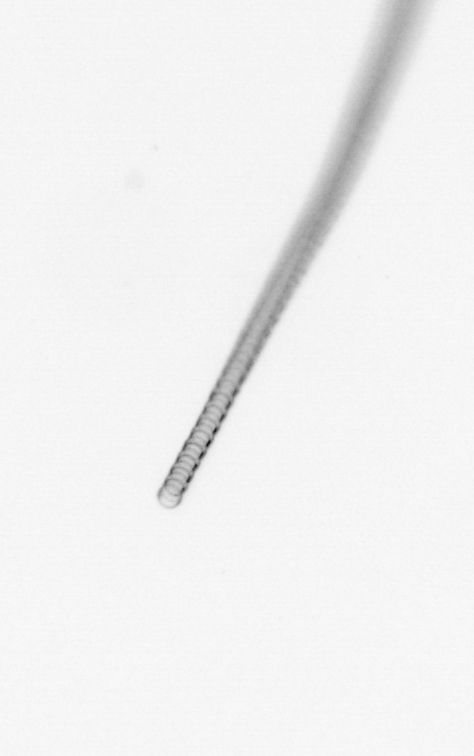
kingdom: Chromista
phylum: Ochrophyta
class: Bacillariophyceae
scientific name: Bacillariophyceae
